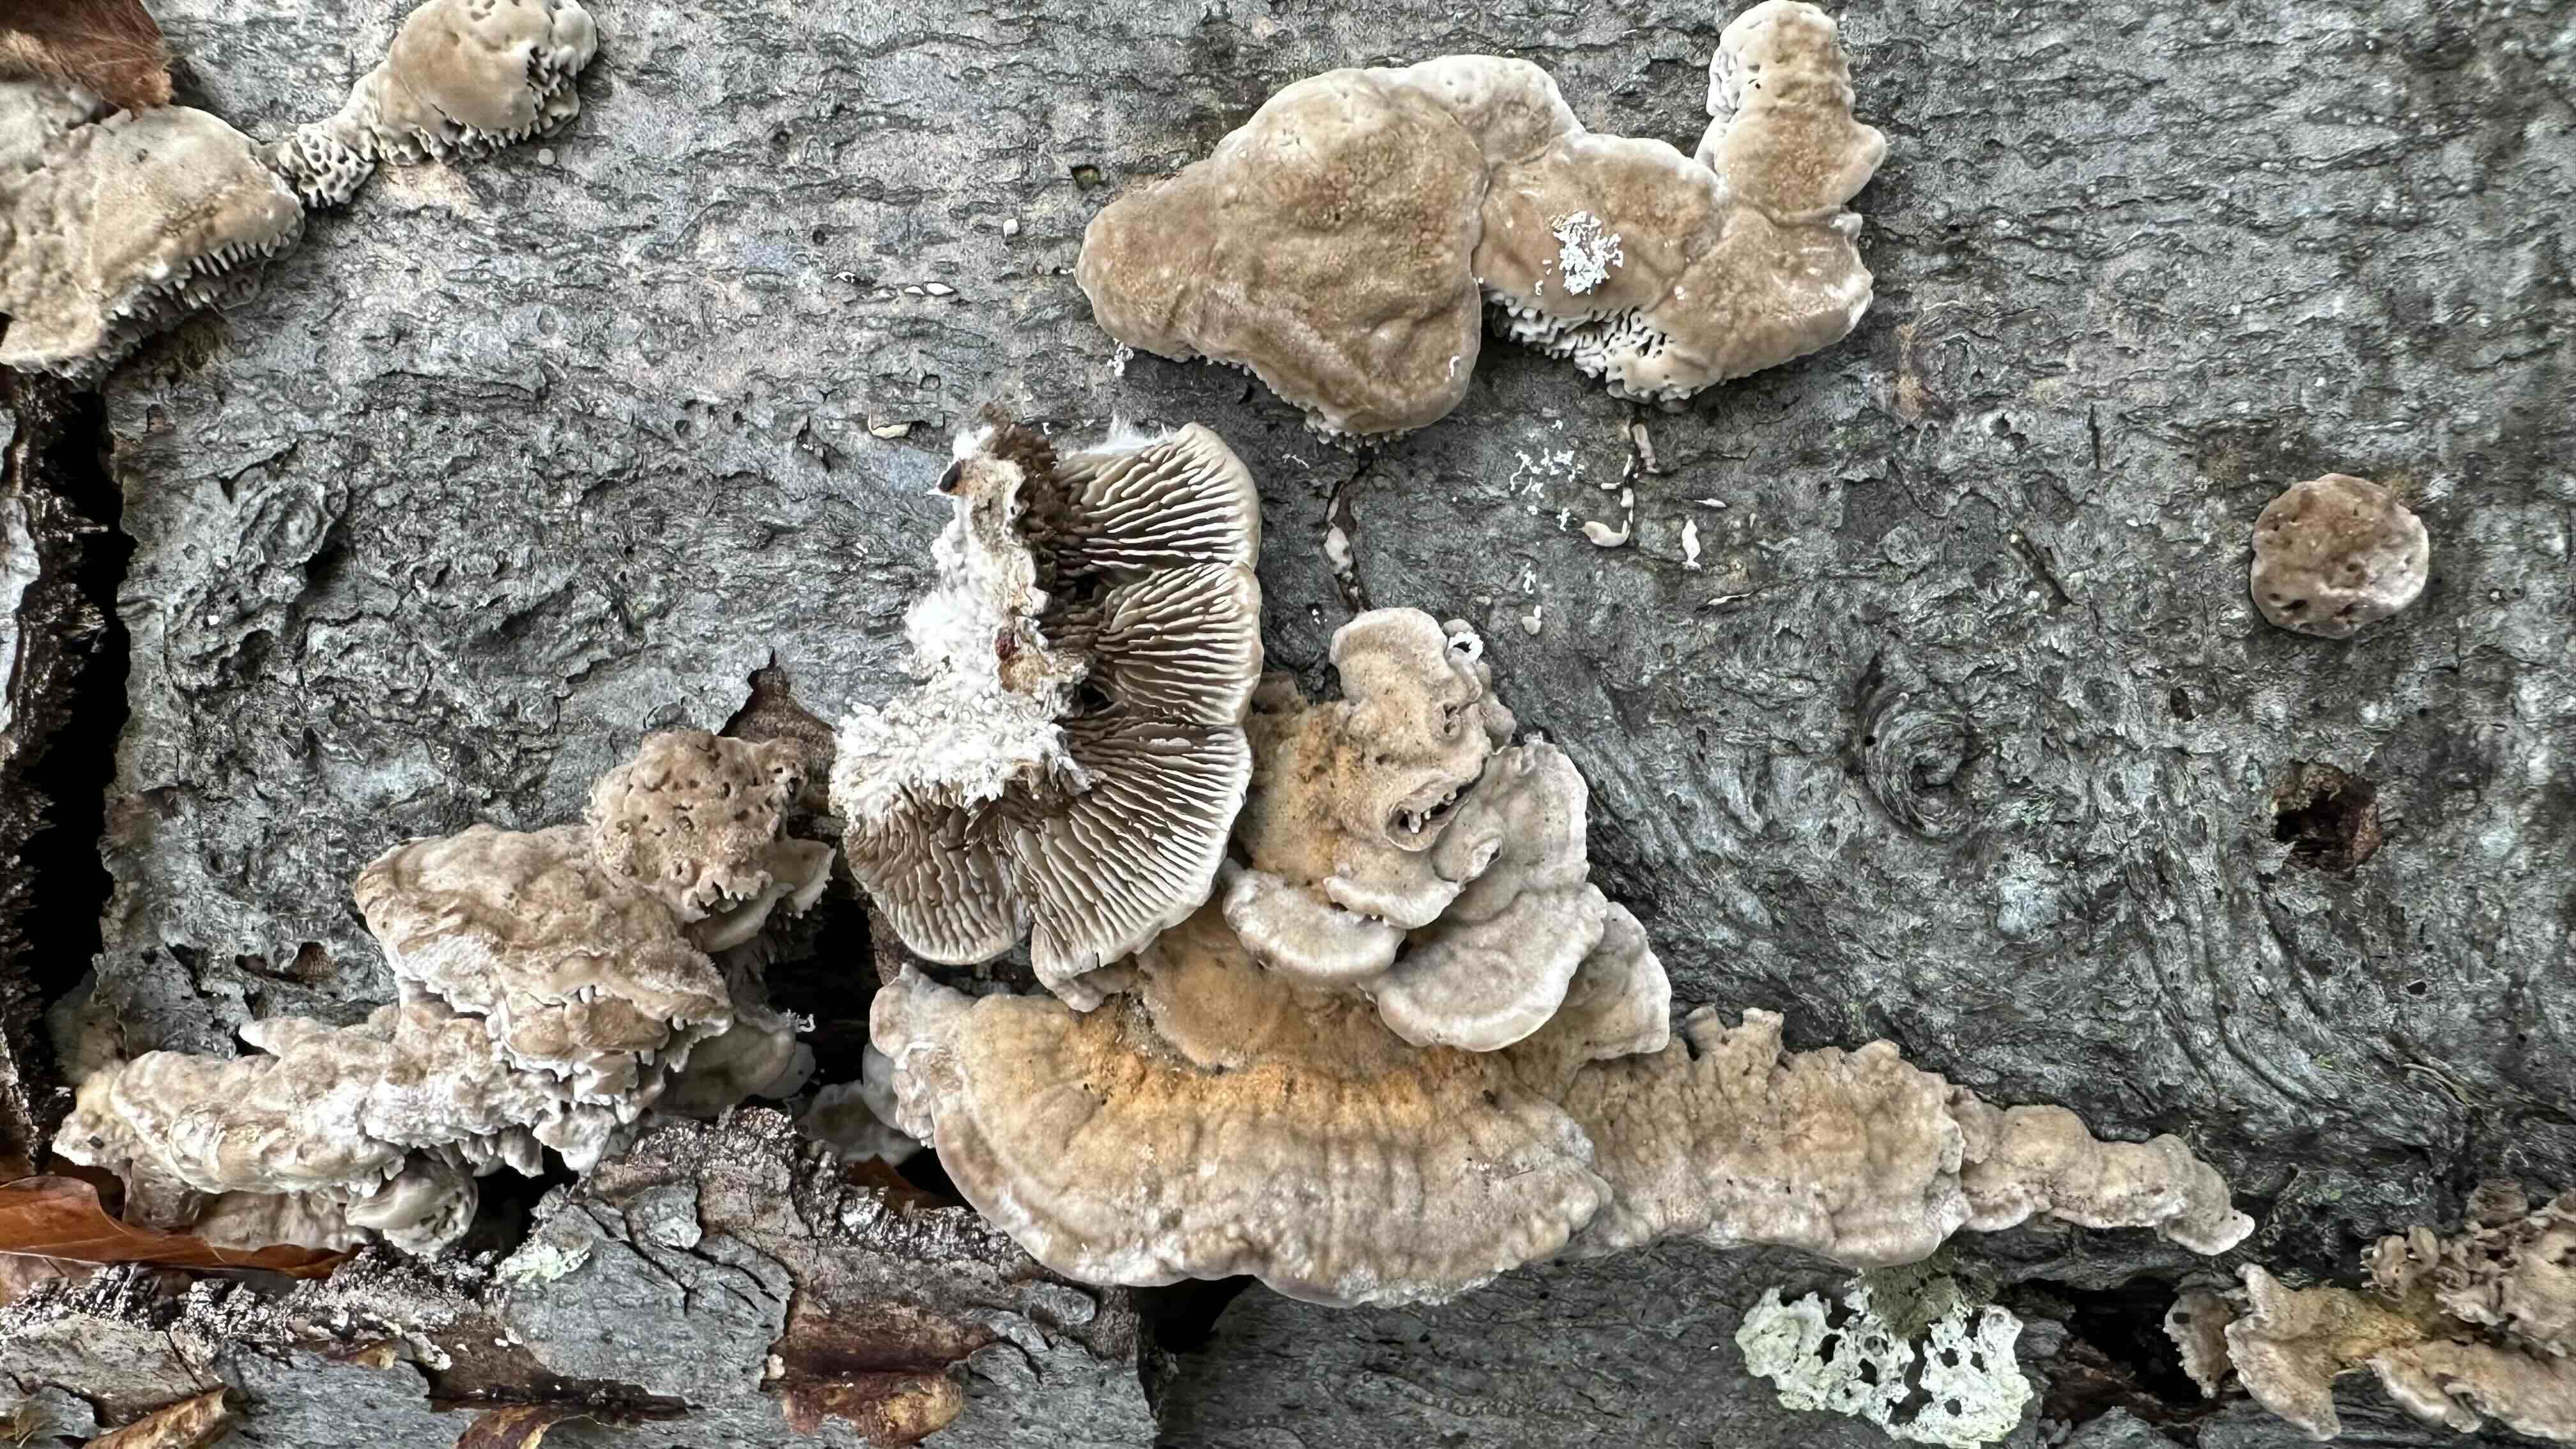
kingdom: Fungi
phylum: Basidiomycota
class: Agaricomycetes
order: Polyporales
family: Polyporaceae
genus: Lenzites
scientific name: Lenzites betulinus
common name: birke-læderporesvamp
